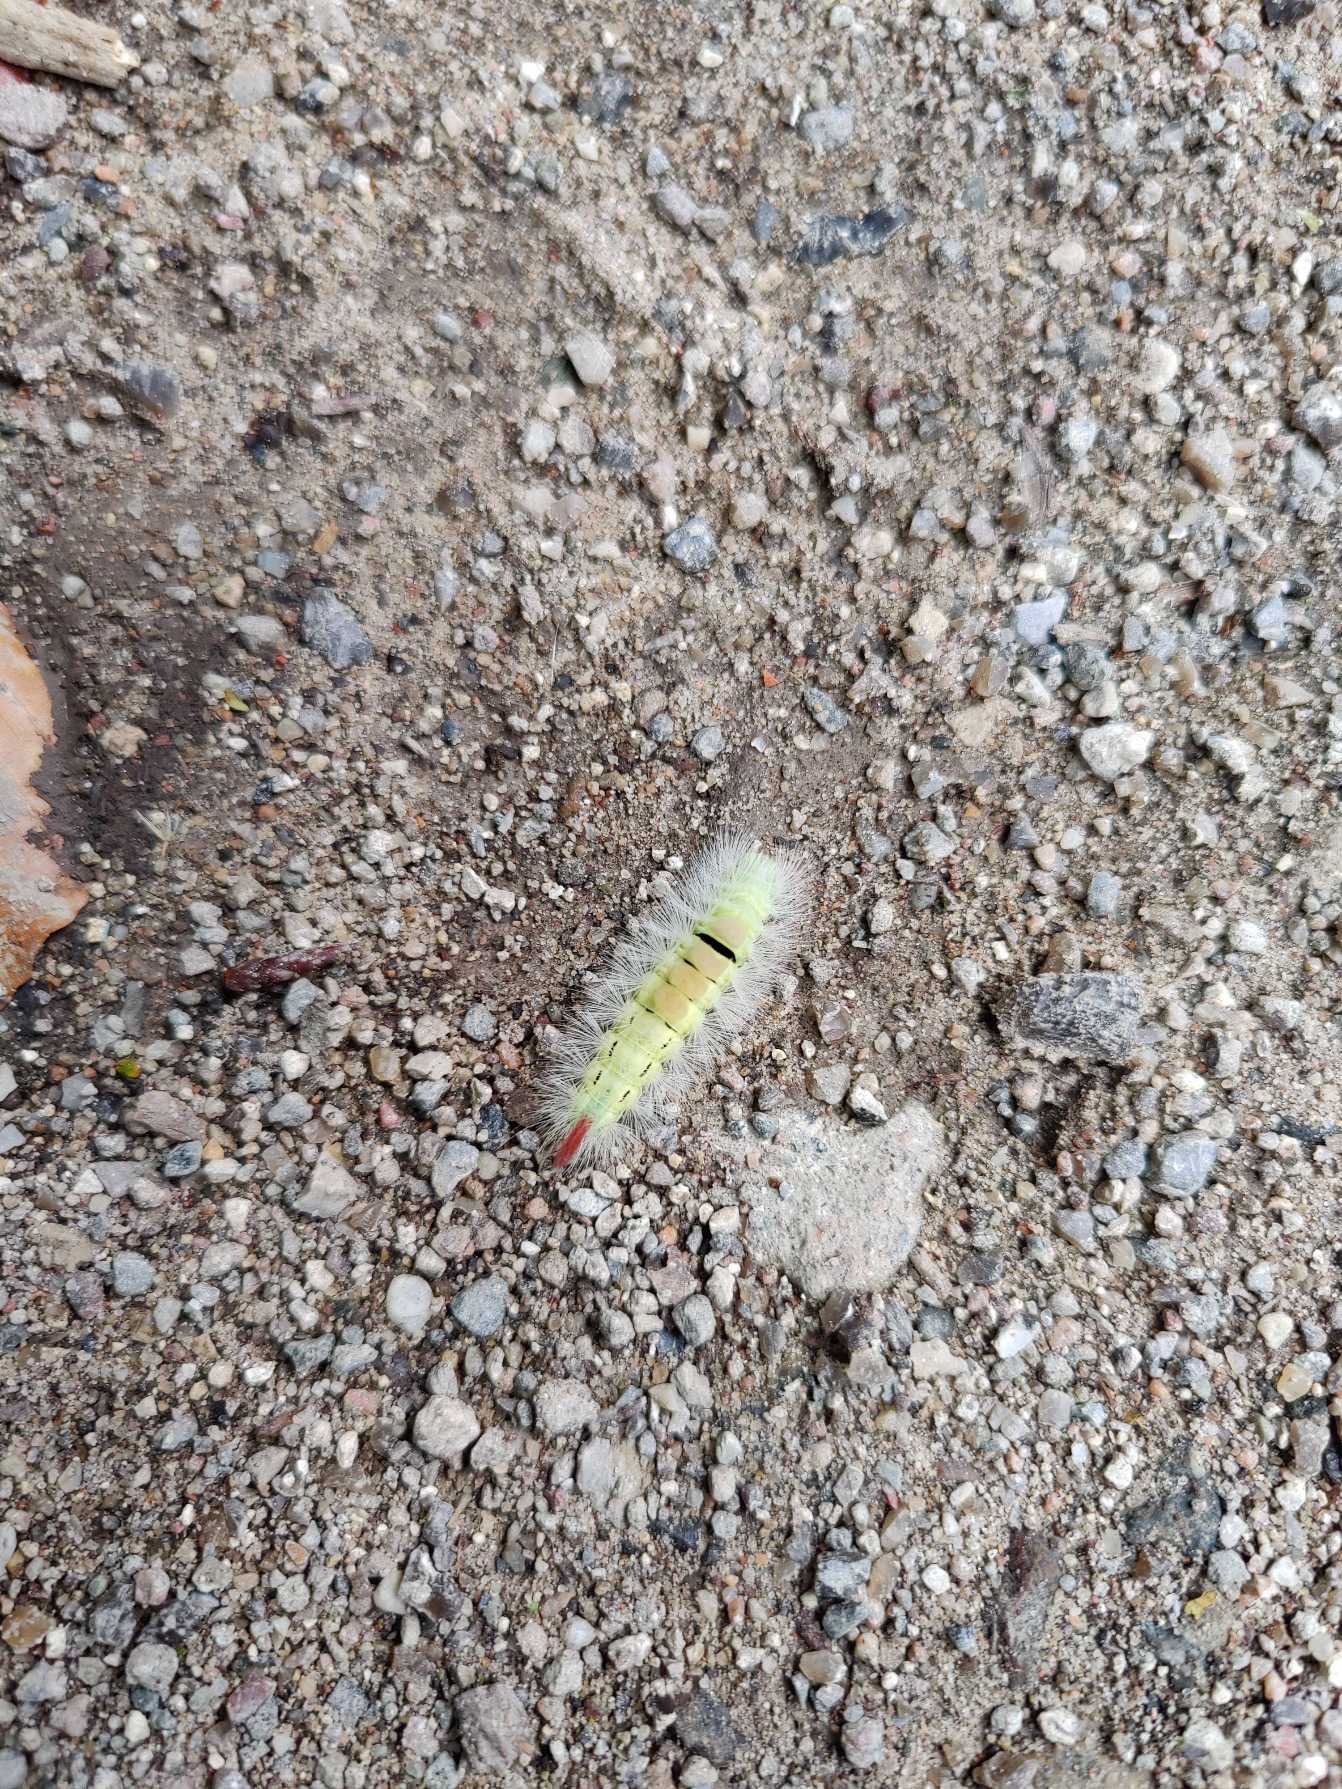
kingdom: Animalia
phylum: Arthropoda
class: Insecta
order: Lepidoptera
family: Erebidae
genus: Calliteara
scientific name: Calliteara pudibunda
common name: Bøgenonne
